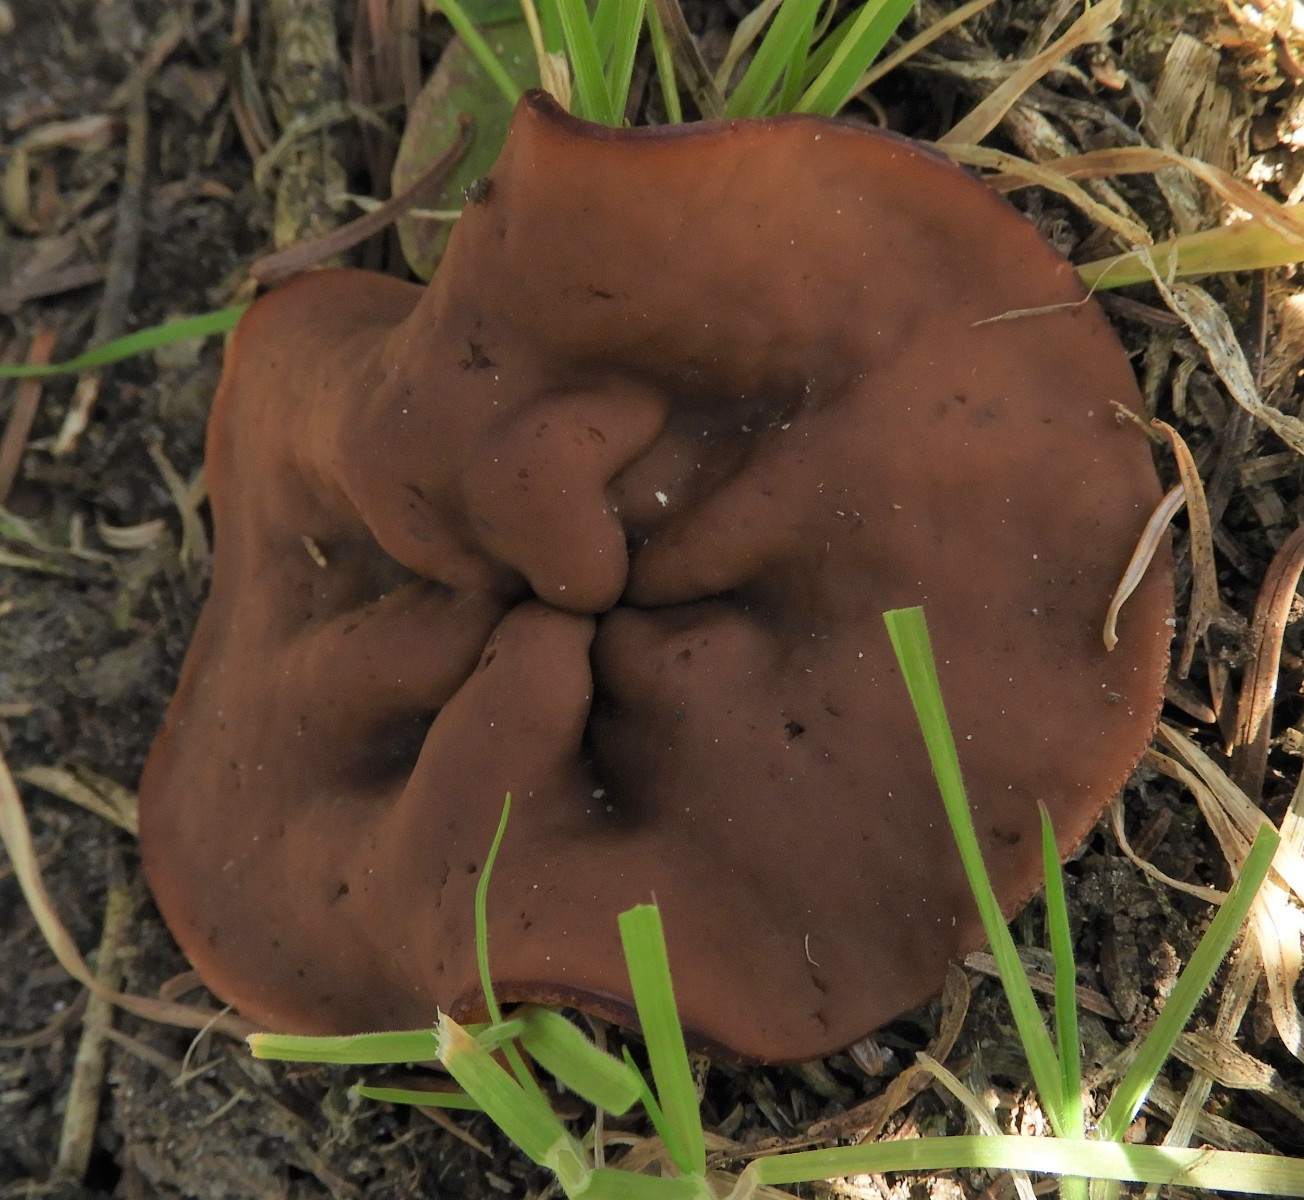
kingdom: Fungi
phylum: Ascomycota
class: Pezizomycetes
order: Pezizales
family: Discinaceae
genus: Discina
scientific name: Discina ancilis
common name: udbredt stenmorkel
